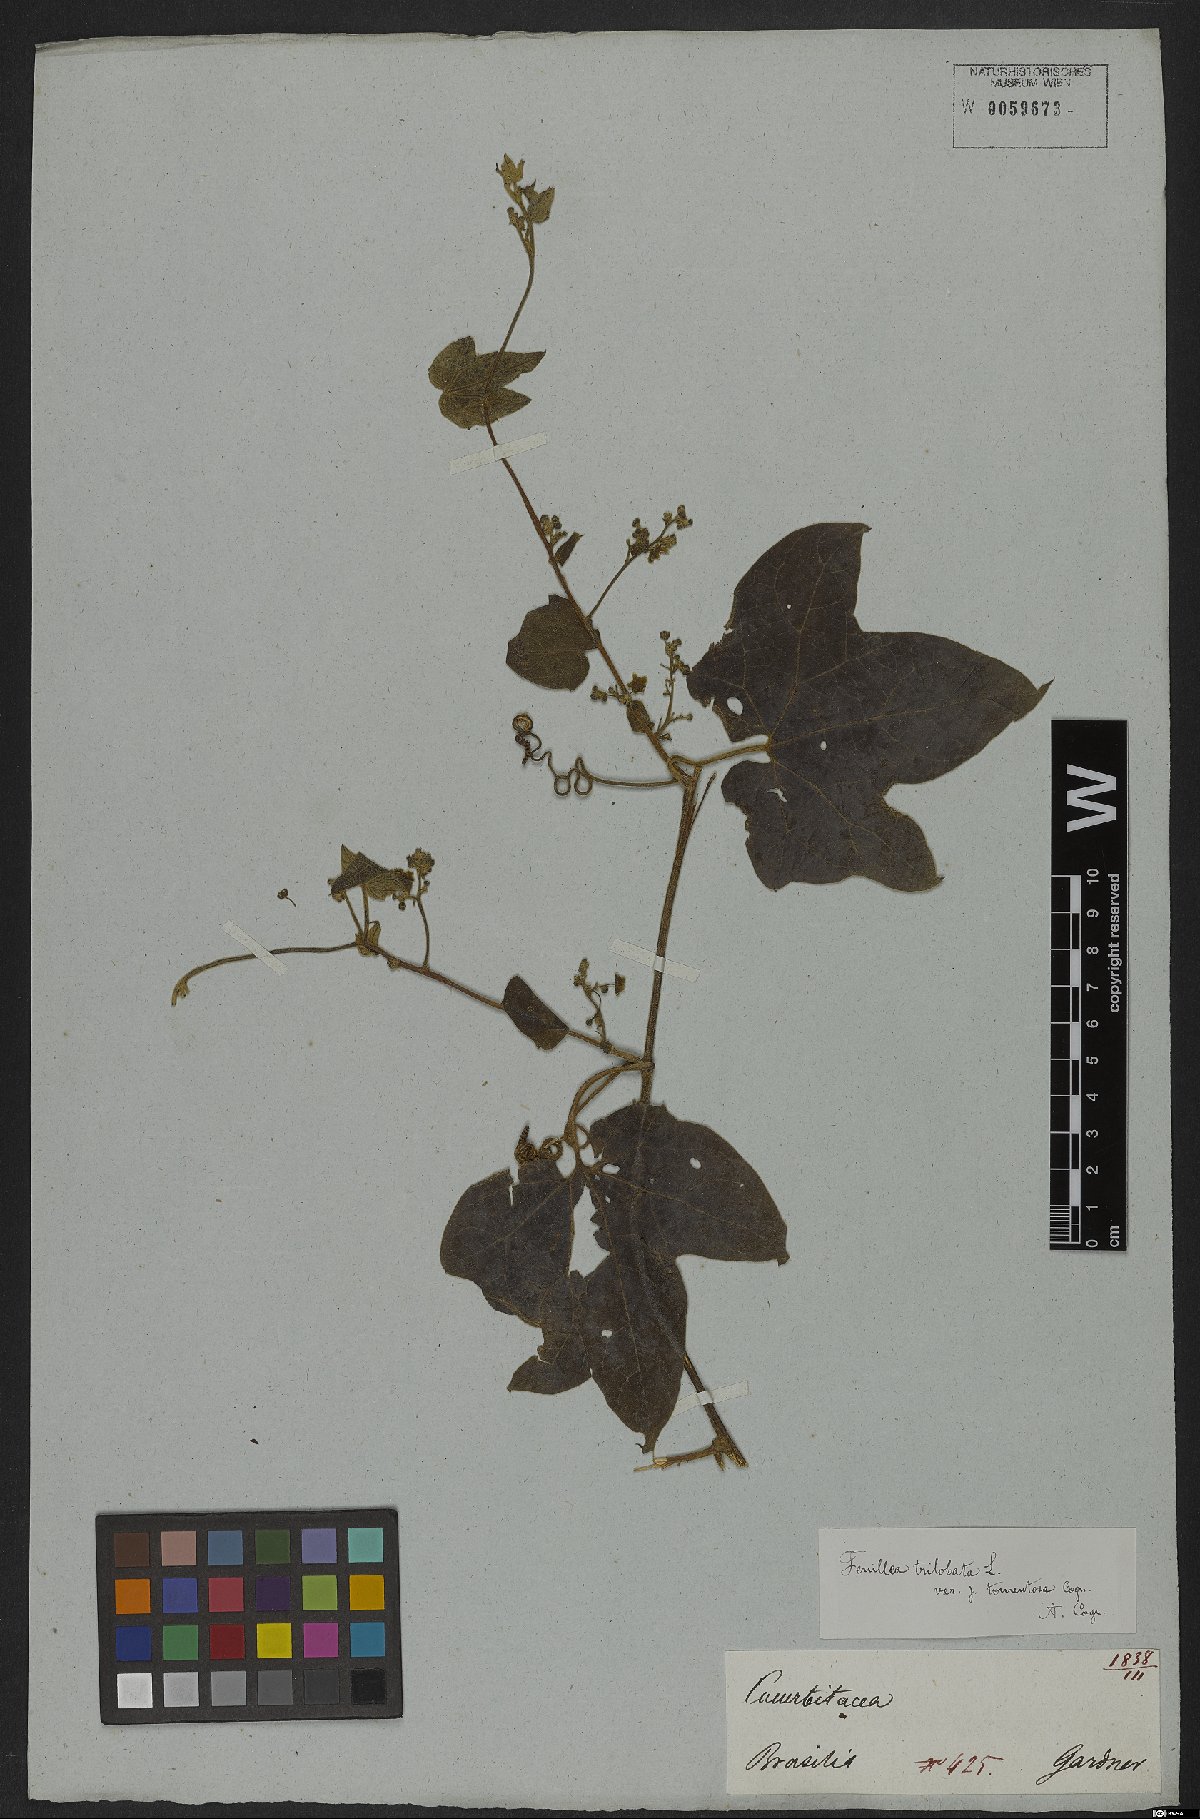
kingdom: Plantae
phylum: Tracheophyta
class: Magnoliopsida
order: Cucurbitales
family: Cucurbitaceae
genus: Fevillea
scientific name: Fevillea trilobata
